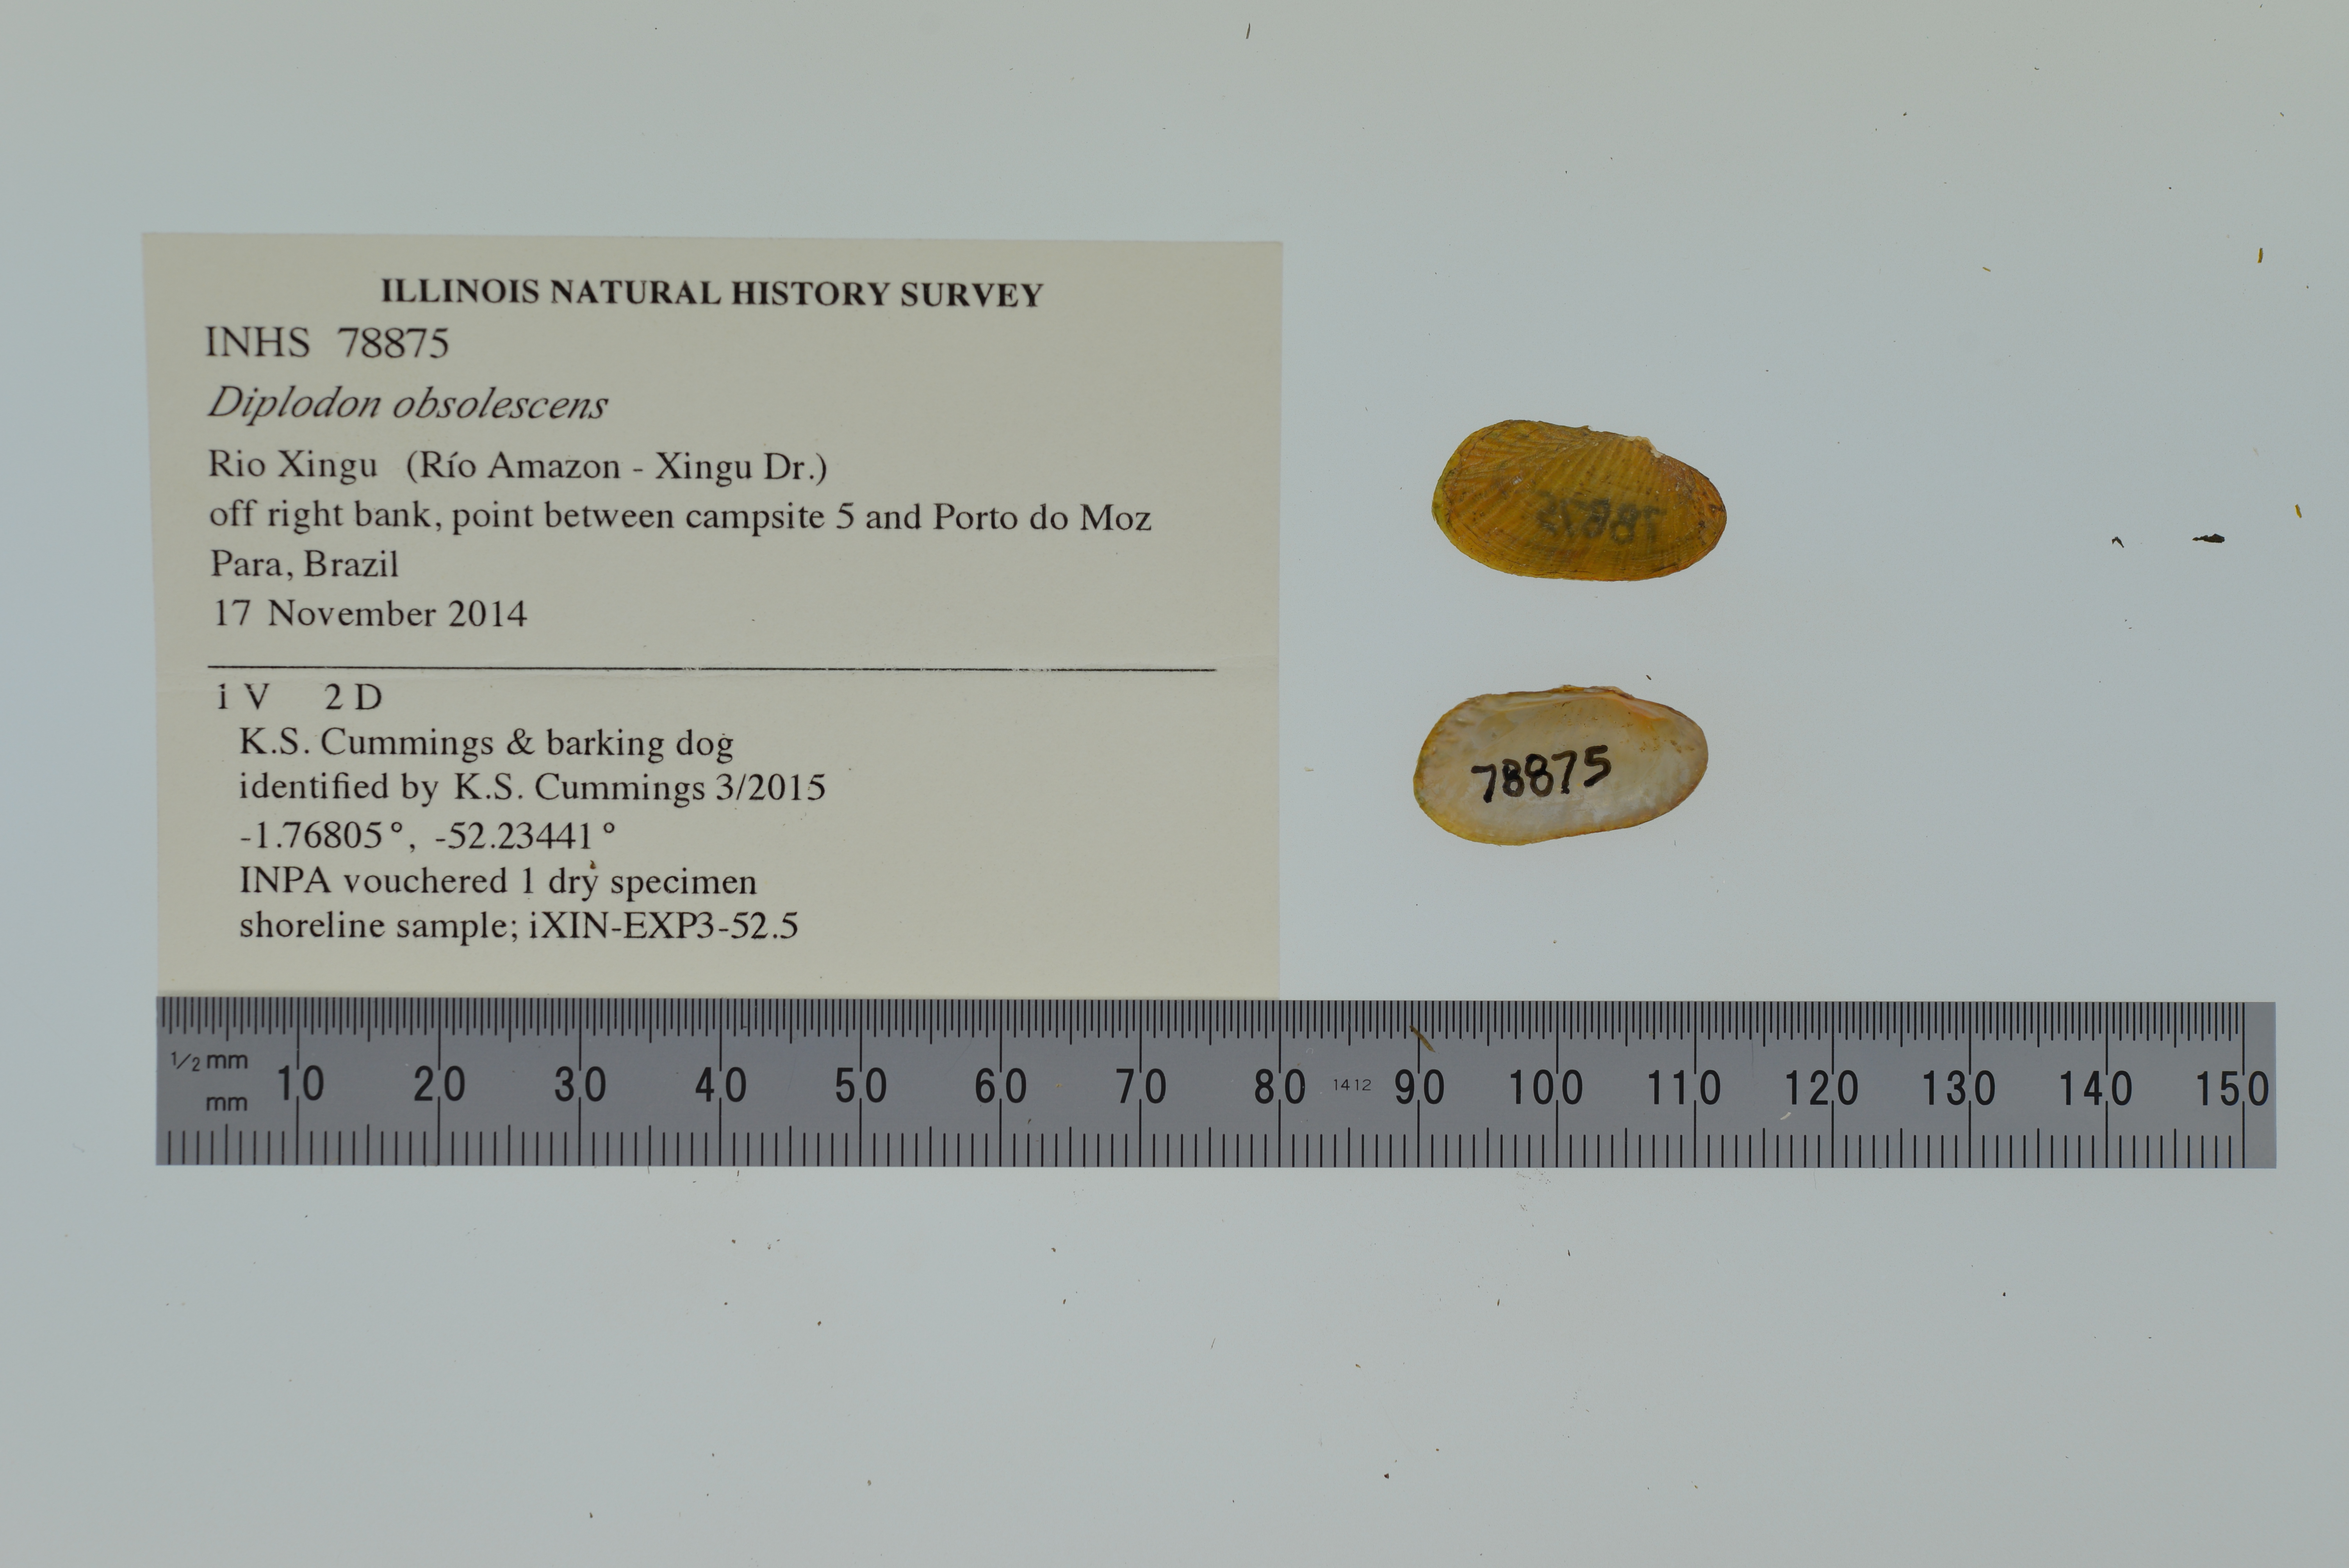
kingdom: Animalia
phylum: Mollusca
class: Bivalvia
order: Unionida
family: Hyriidae
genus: Diplodon
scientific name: Diplodon obsolescens
